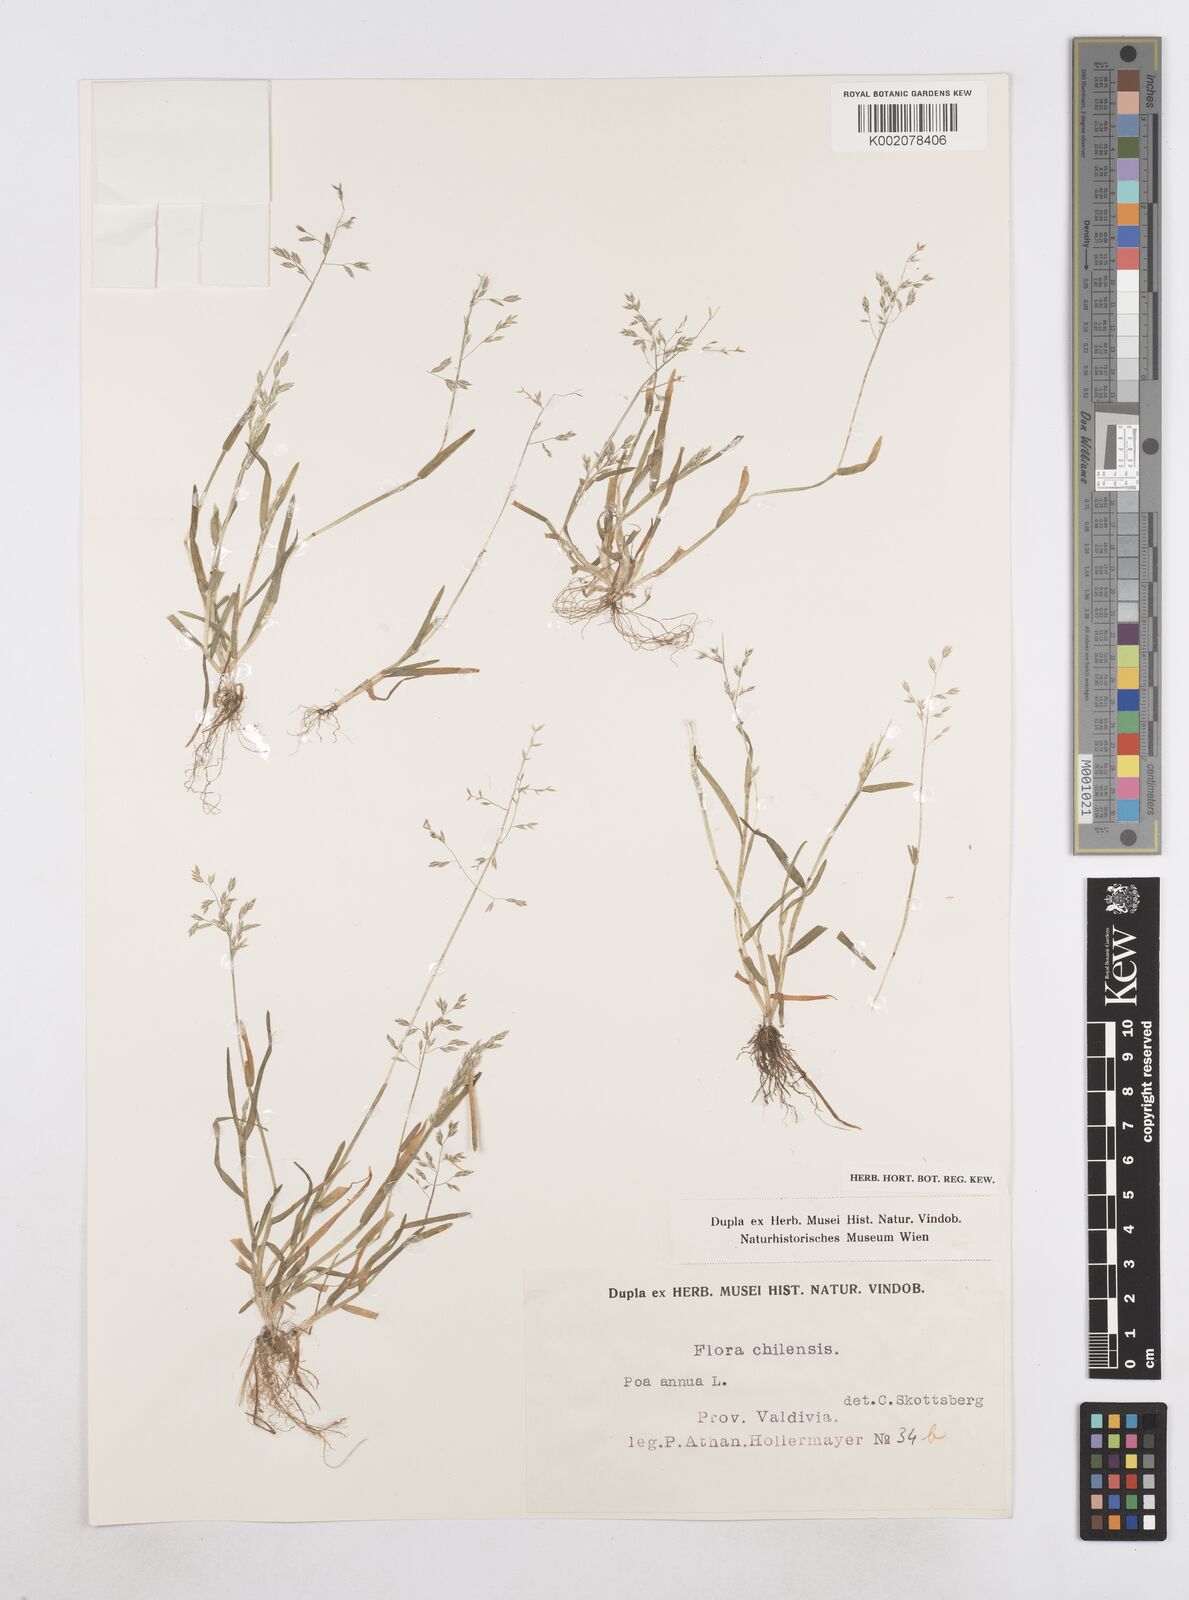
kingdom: Plantae
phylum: Tracheophyta
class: Liliopsida
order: Poales
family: Poaceae
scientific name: Poaceae
